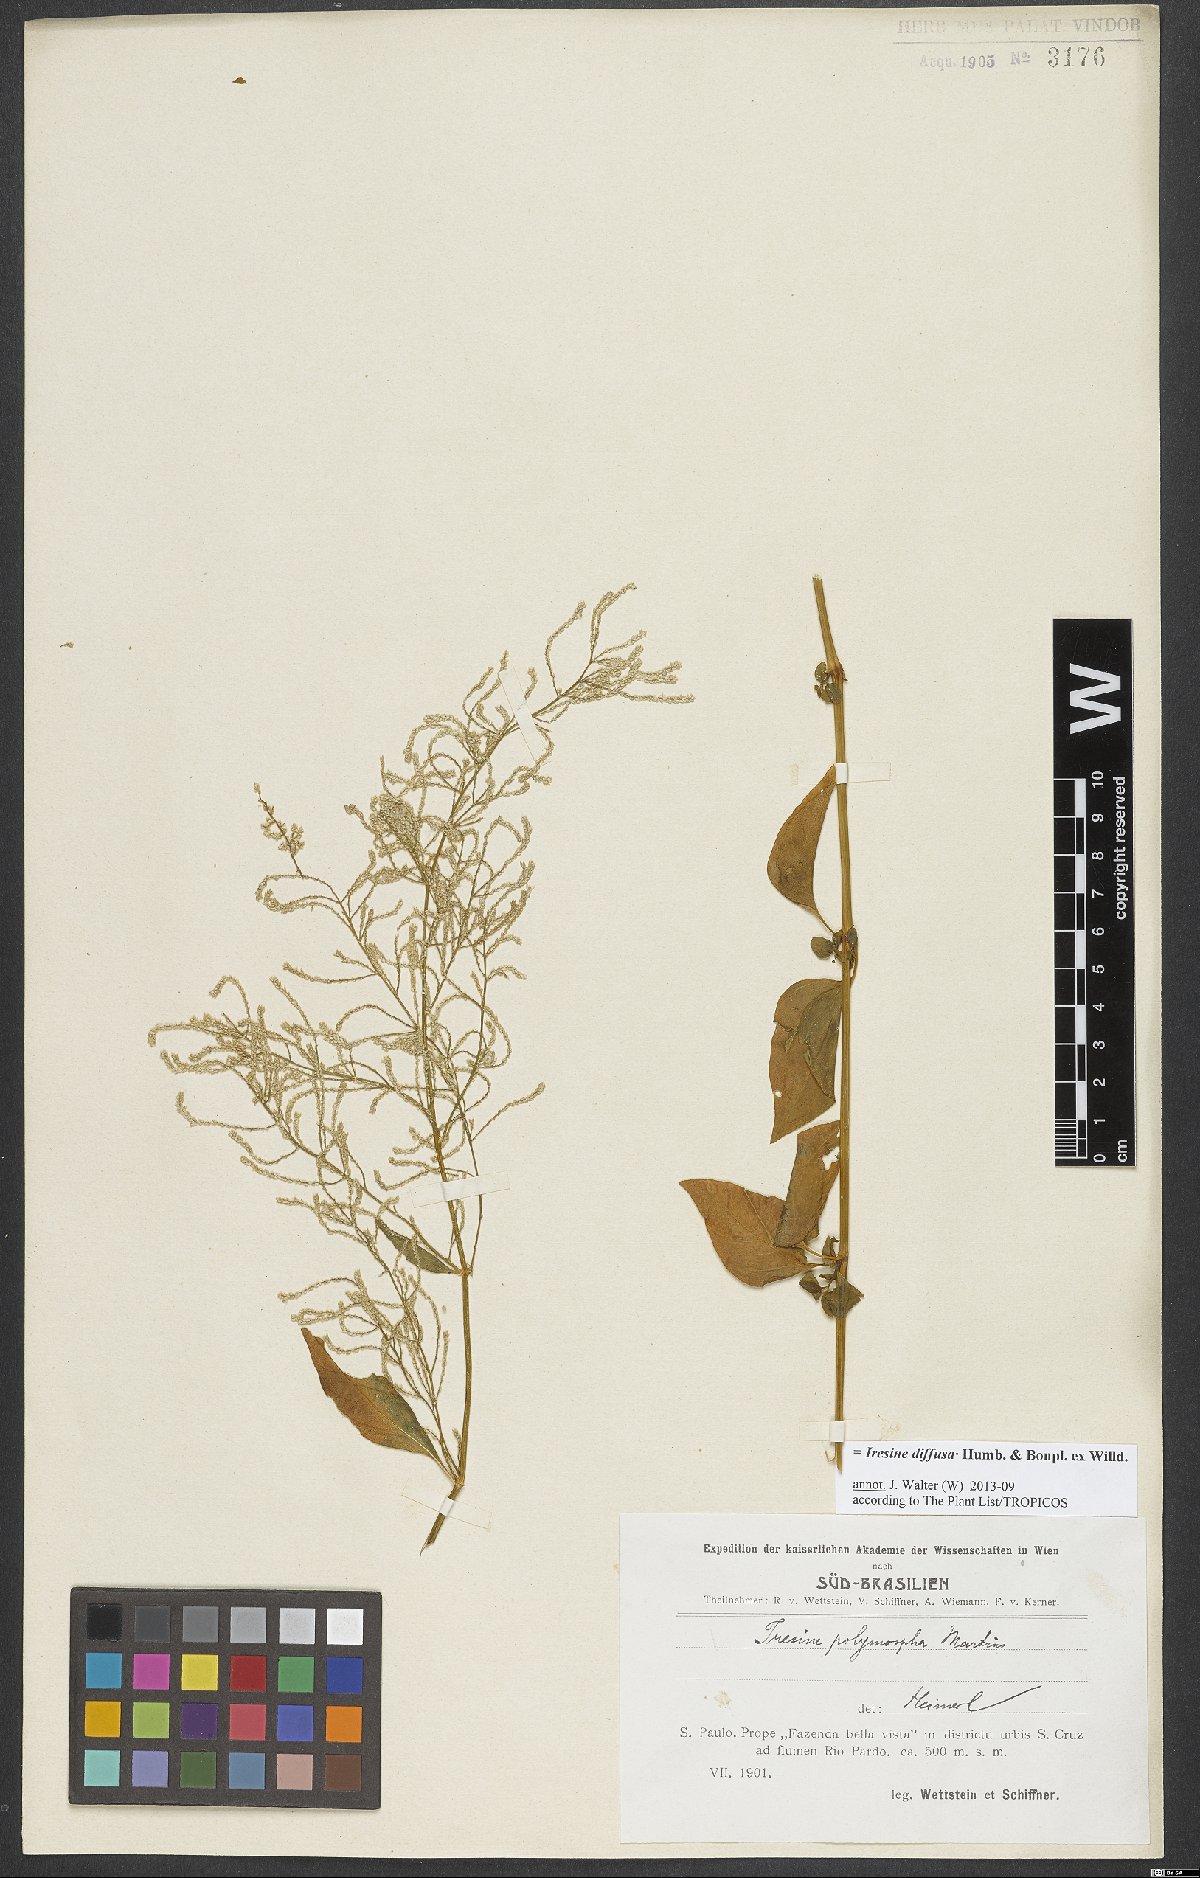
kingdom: Plantae
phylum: Tracheophyta
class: Magnoliopsida
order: Caryophyllales
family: Amaranthaceae
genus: Iresine
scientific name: Iresine diffusa
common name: Juba's-bush
